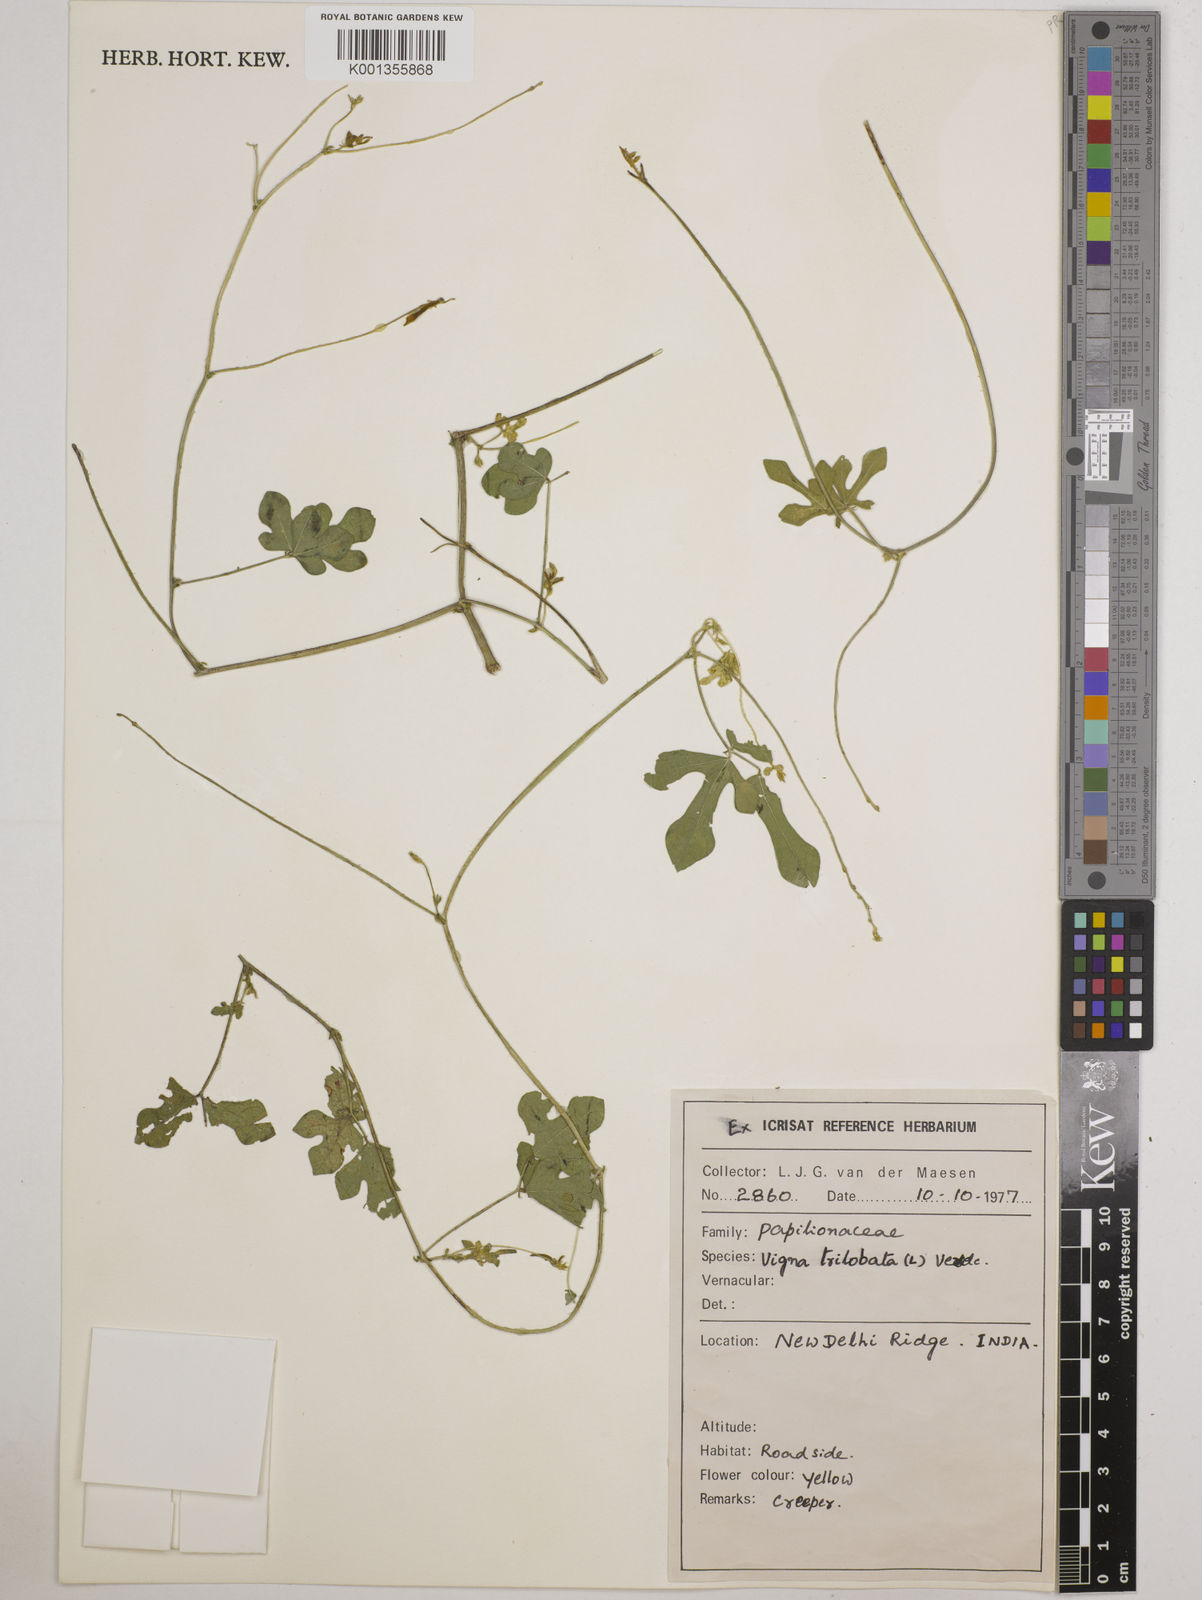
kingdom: Plantae
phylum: Tracheophyta
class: Magnoliopsida
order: Fabales
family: Fabaceae
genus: Vigna
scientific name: Vigna trilobata
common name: Jungli-bean
